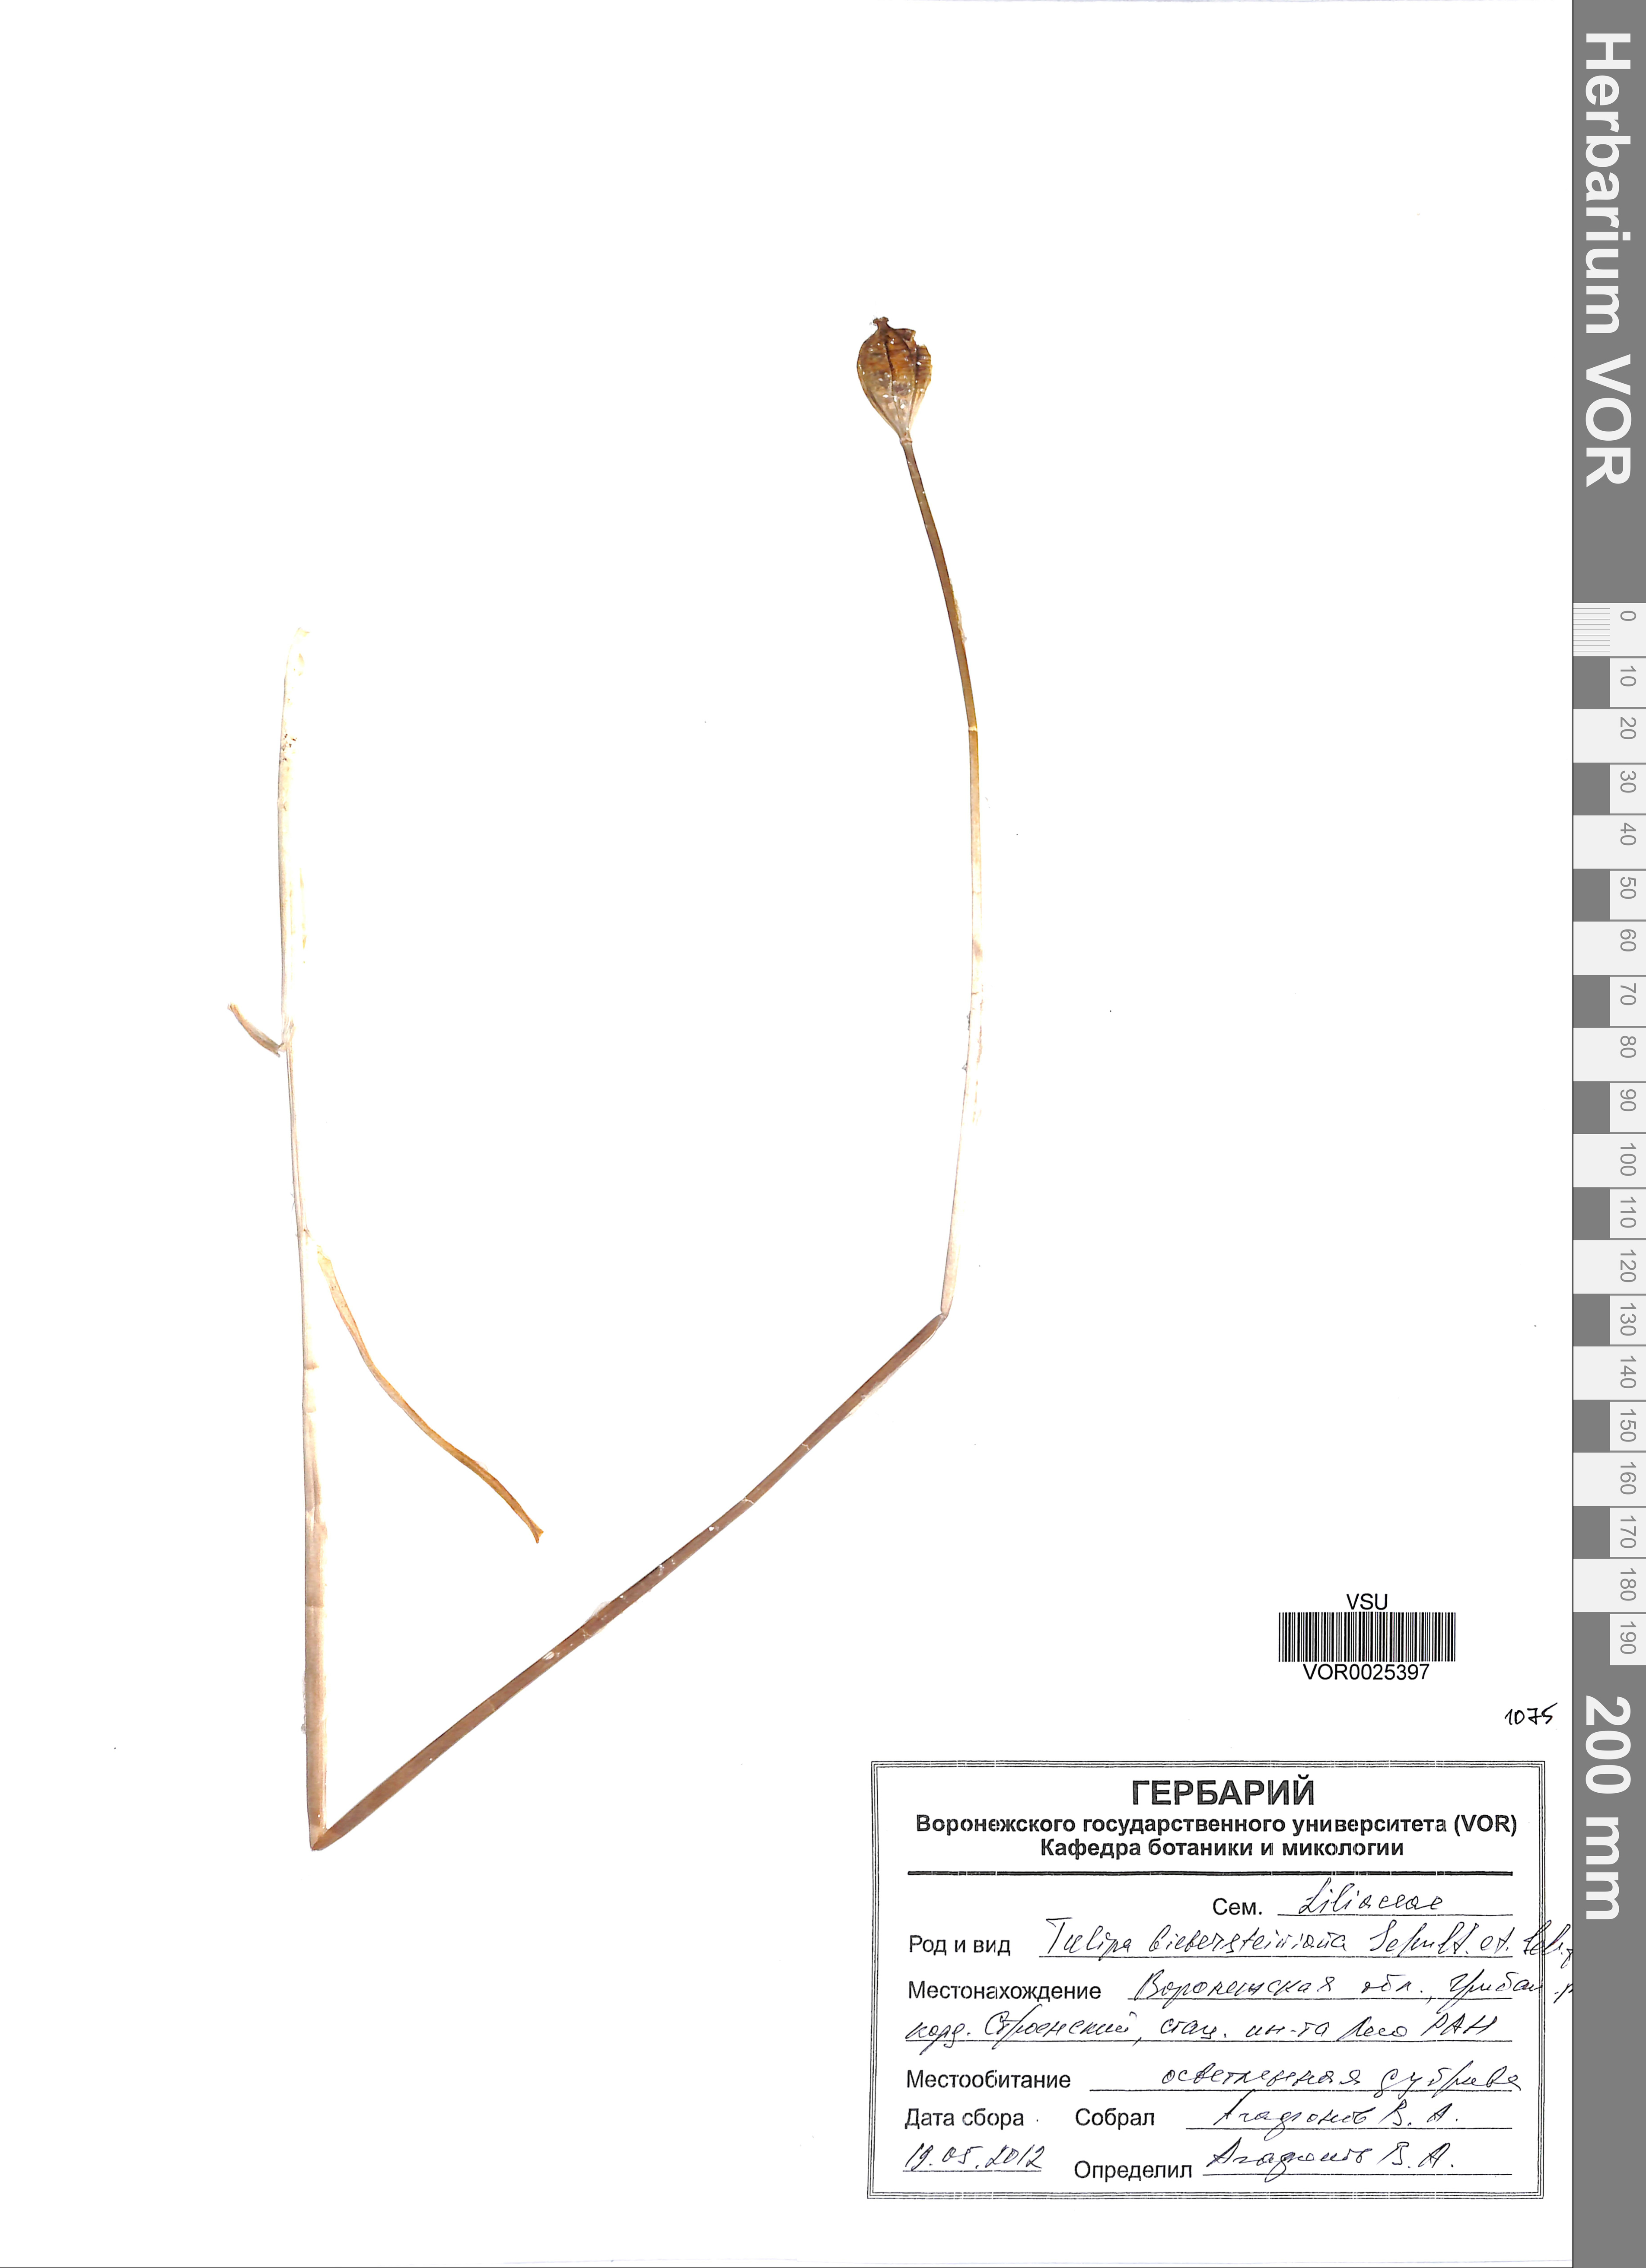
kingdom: Plantae
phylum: Tracheophyta
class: Liliopsida
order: Liliales
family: Liliaceae
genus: Tulipa
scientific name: Tulipa sylvestris
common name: Wild tulip
